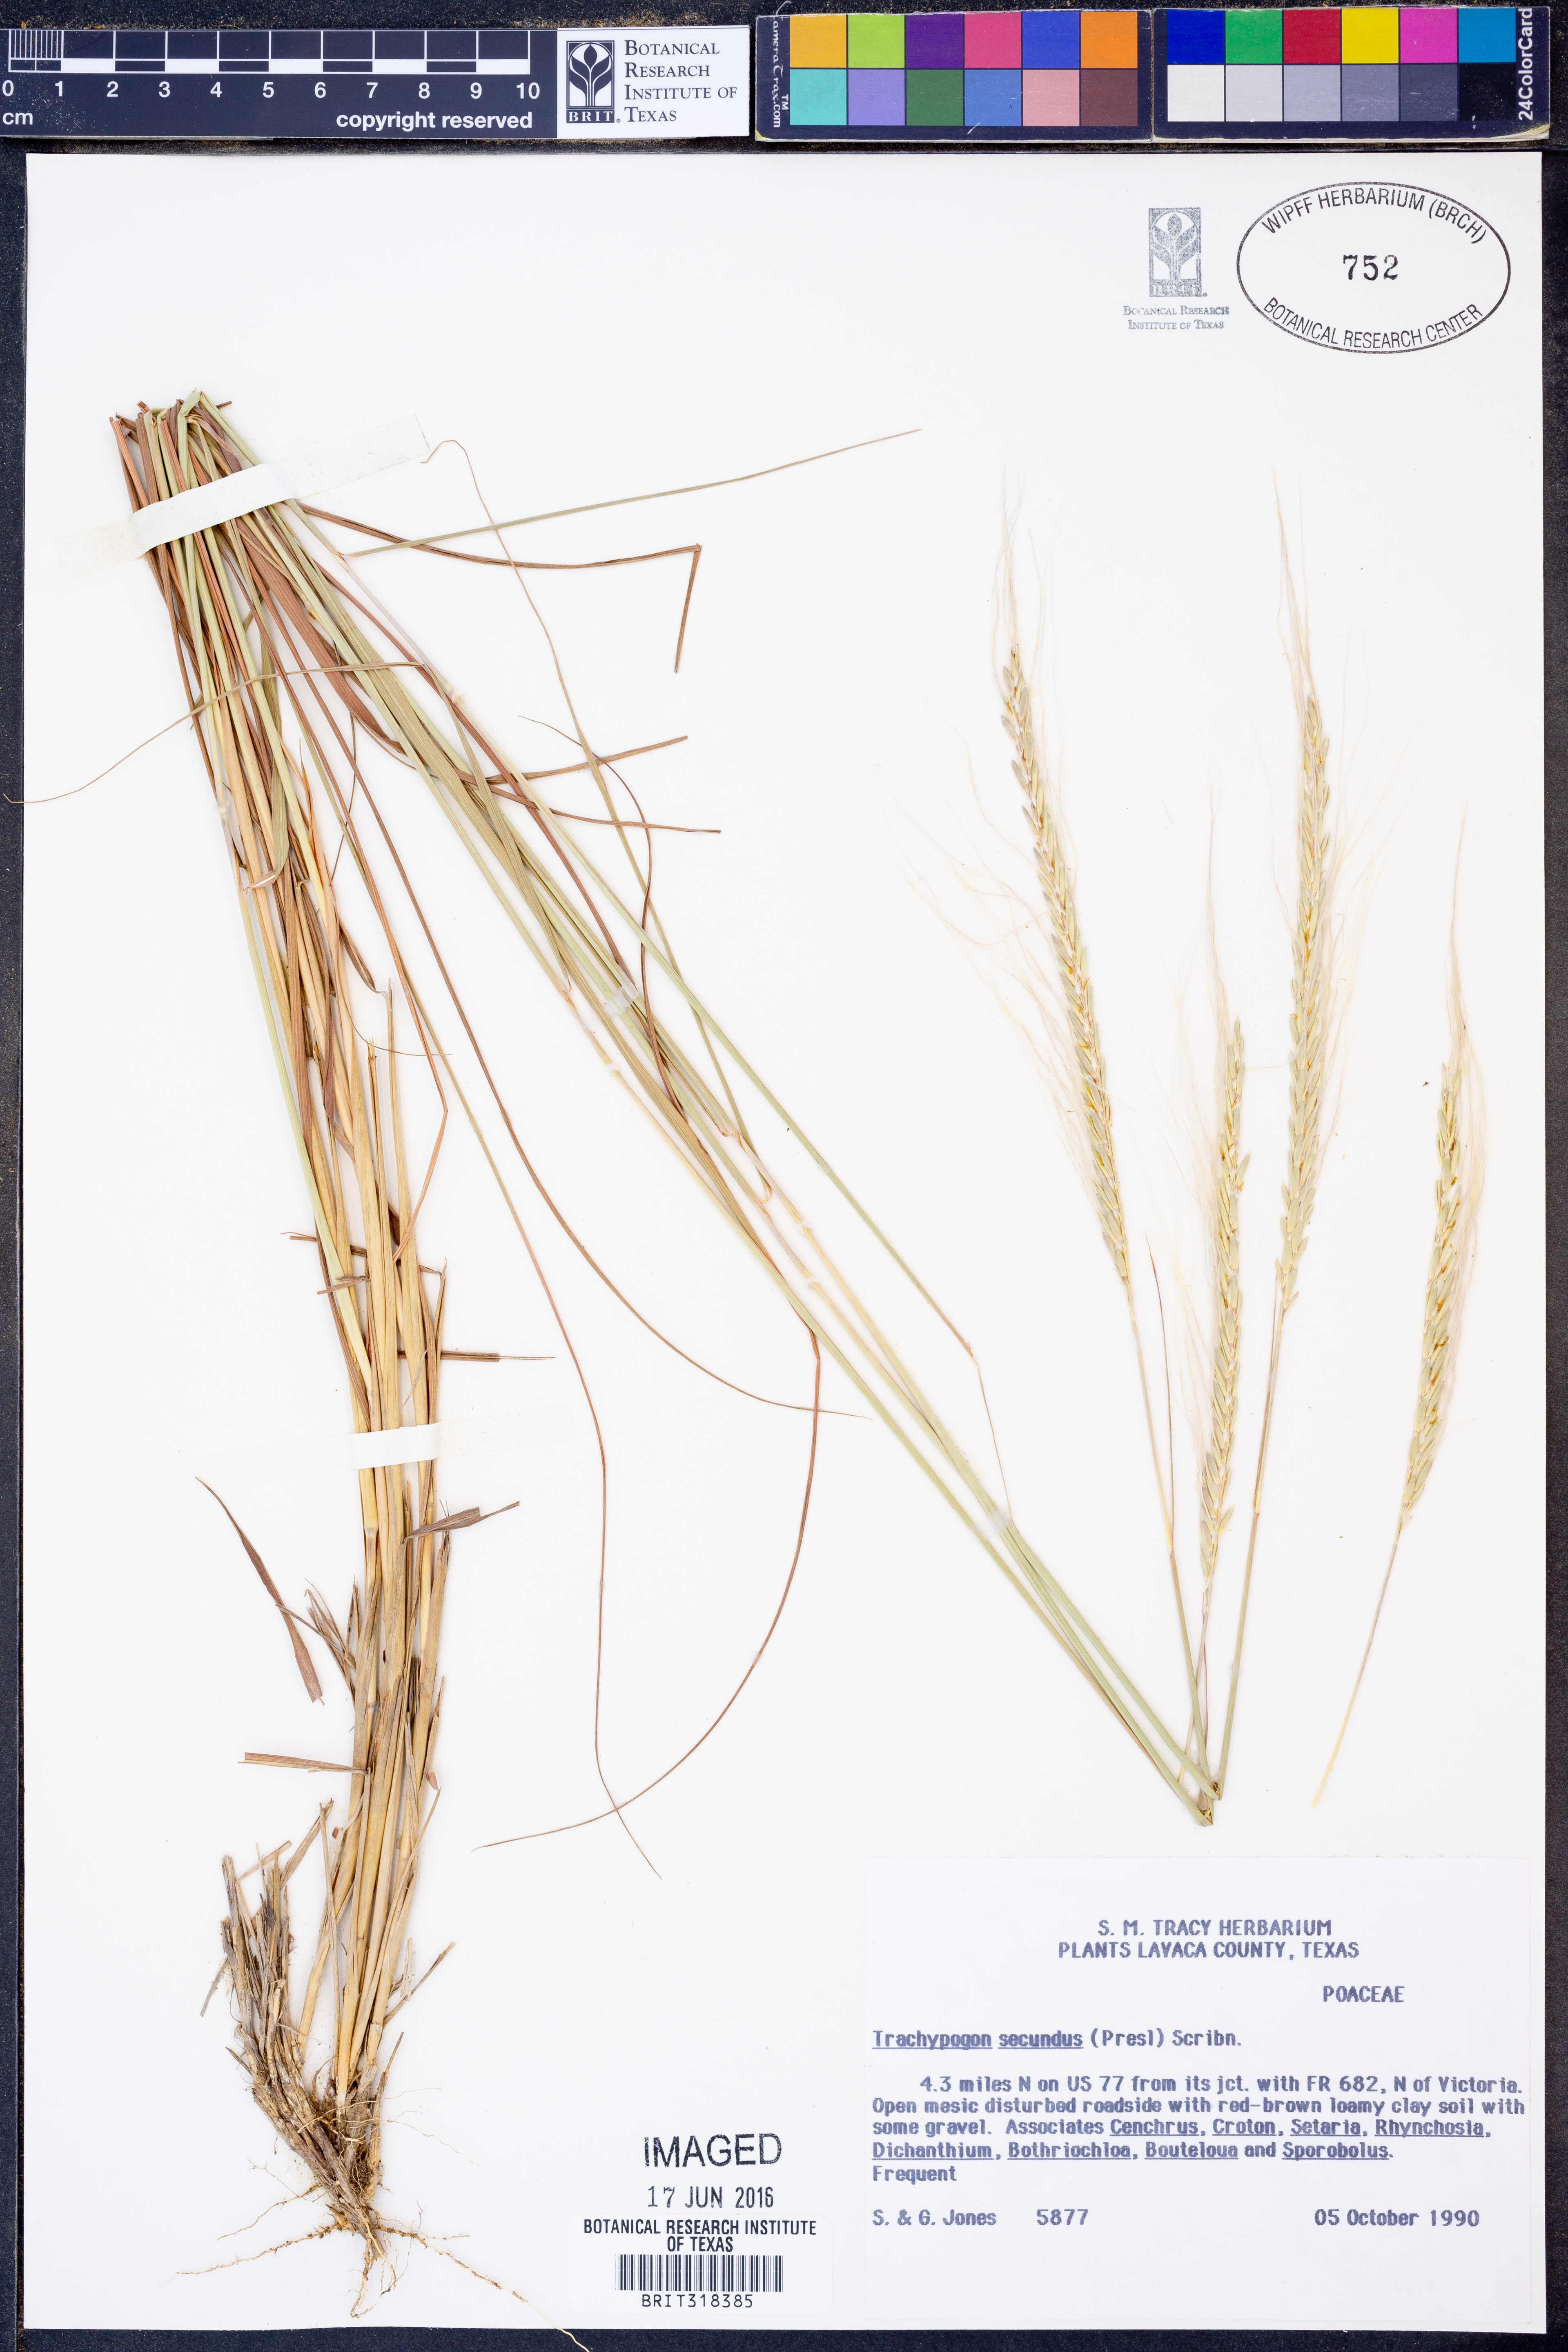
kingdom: Plantae
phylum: Tracheophyta
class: Liliopsida
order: Poales
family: Poaceae
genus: Trachypogon
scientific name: Trachypogon spicatus
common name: Crinkle-awn
